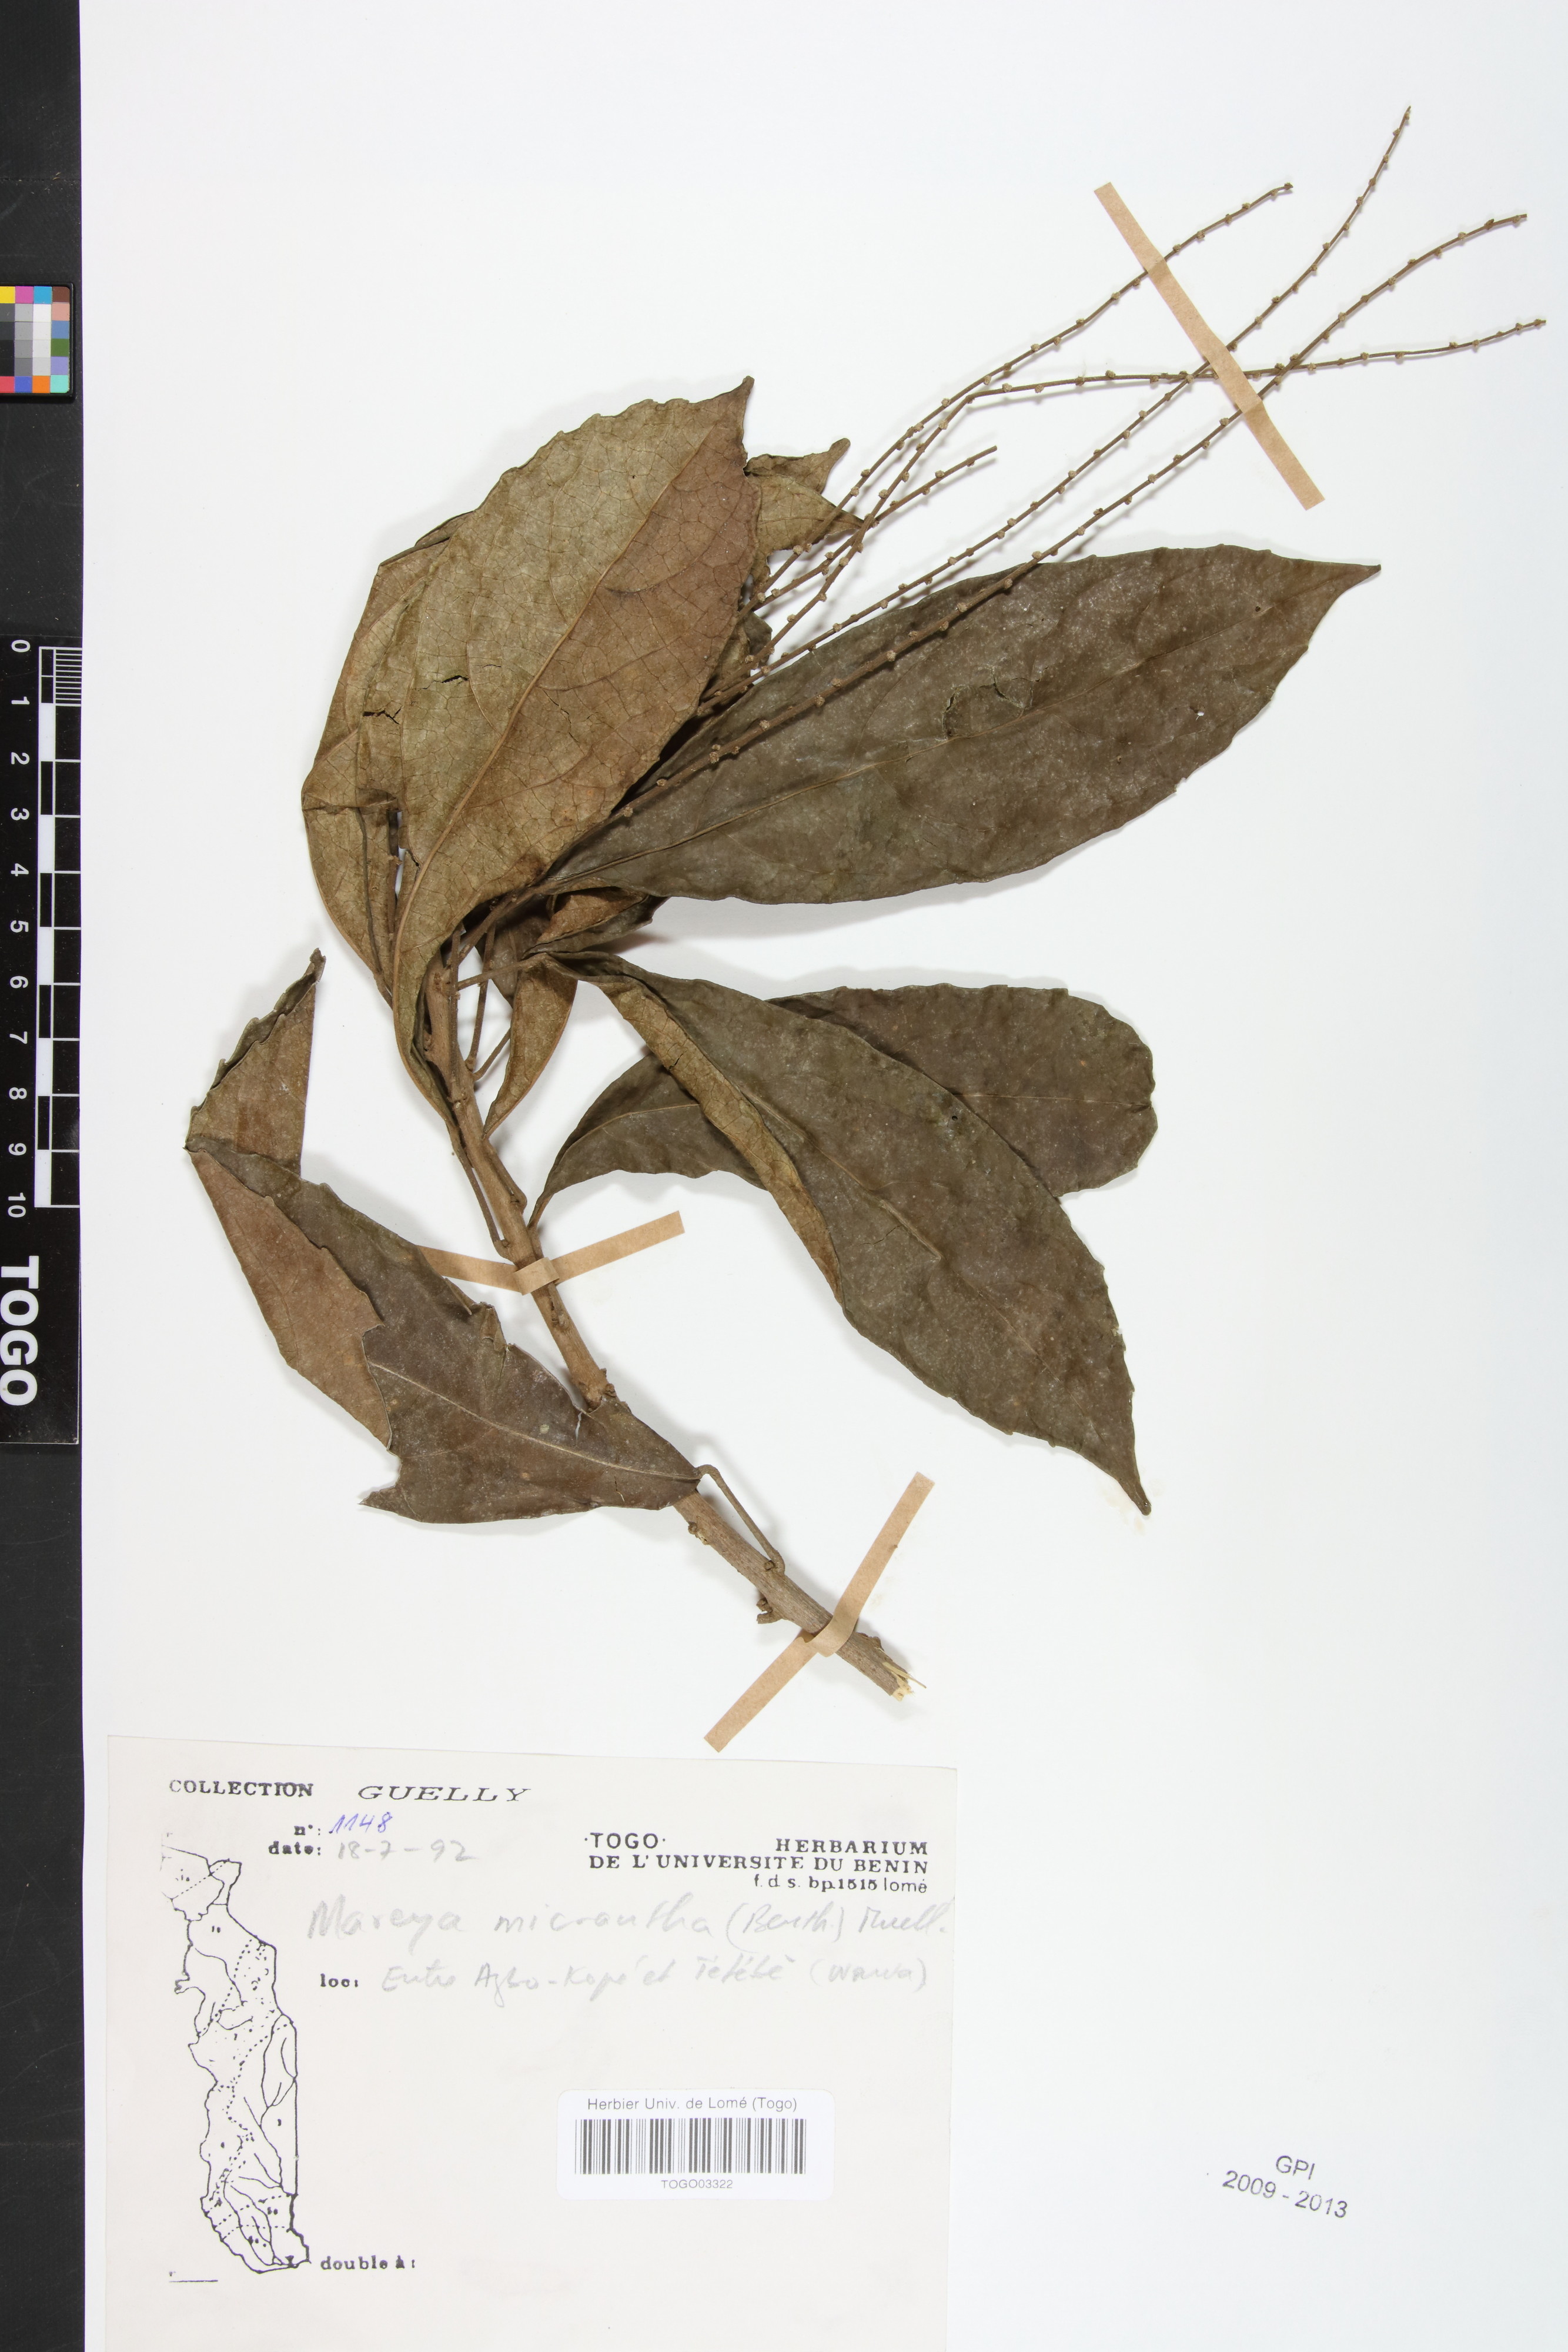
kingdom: Plantae
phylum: Tracheophyta
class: Magnoliopsida
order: Malpighiales
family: Euphorbiaceae
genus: Mareya
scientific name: Mareya micrantha
